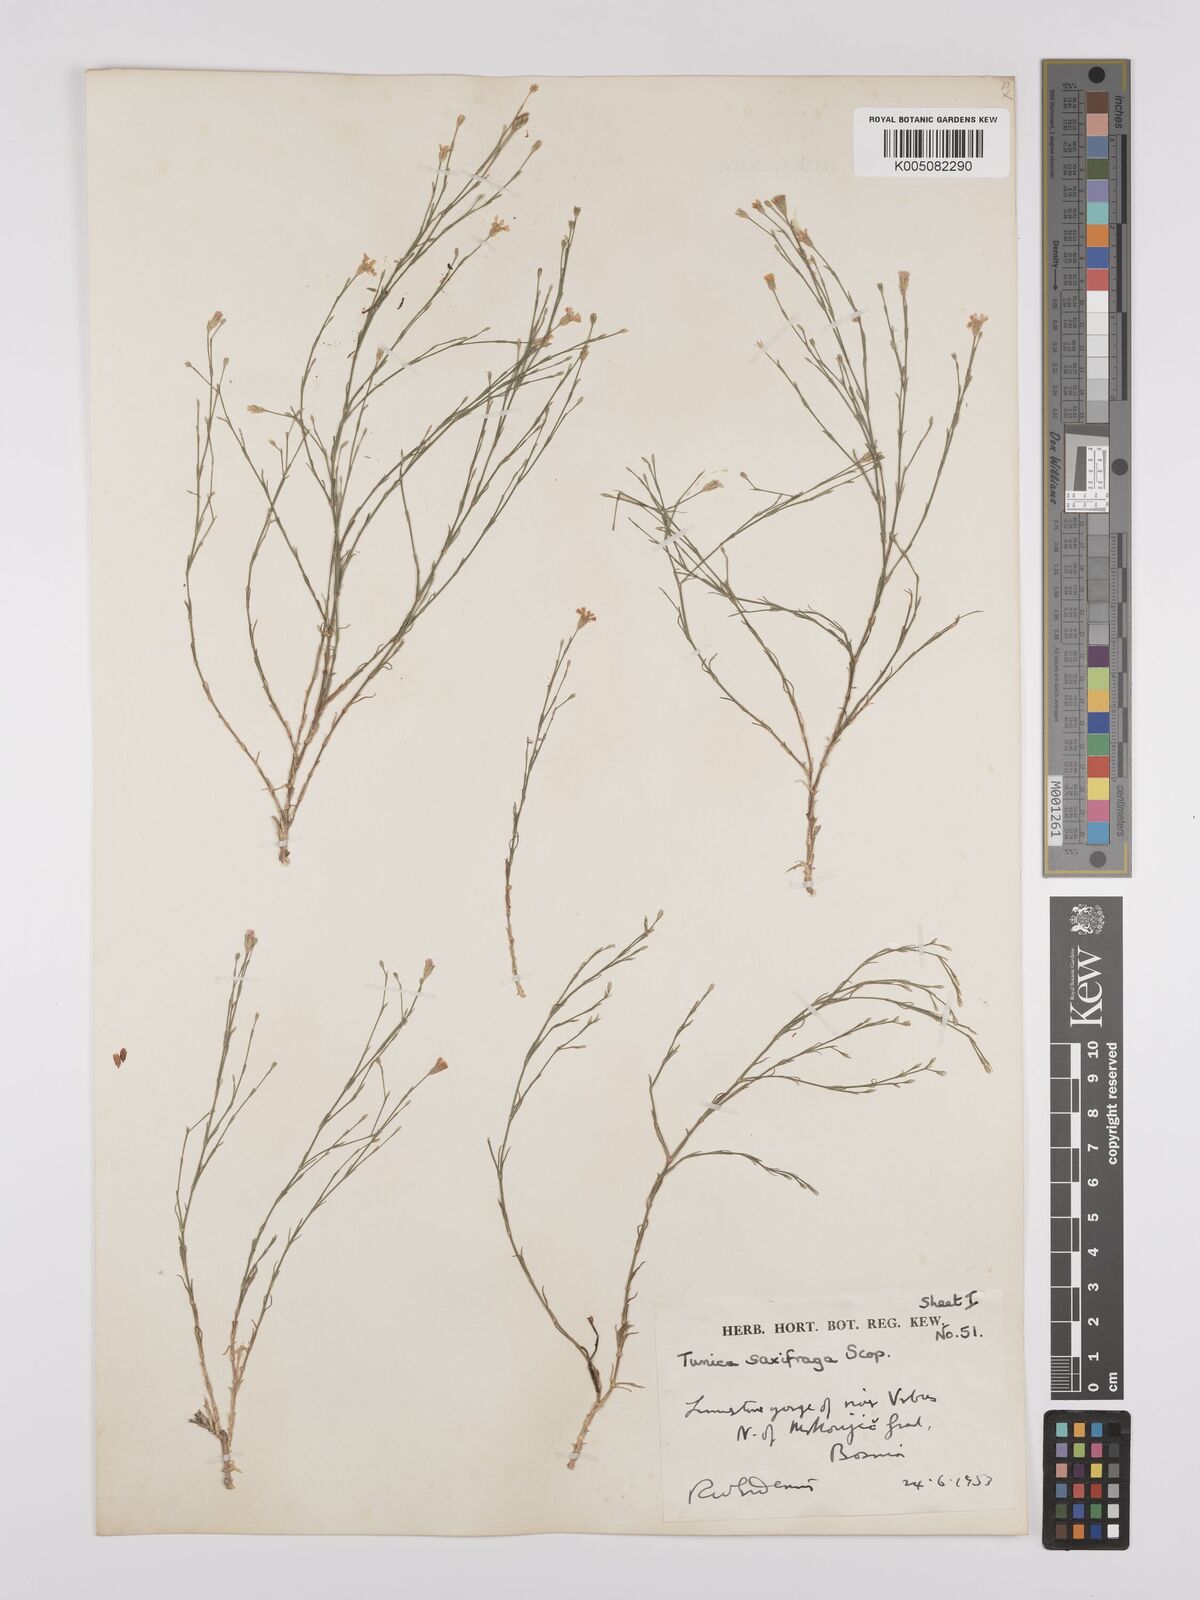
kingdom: Plantae
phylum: Tracheophyta
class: Magnoliopsida
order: Caryophyllales
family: Caryophyllaceae
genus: Petrorhagia
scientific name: Petrorhagia saxifraga
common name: Tunicflower
